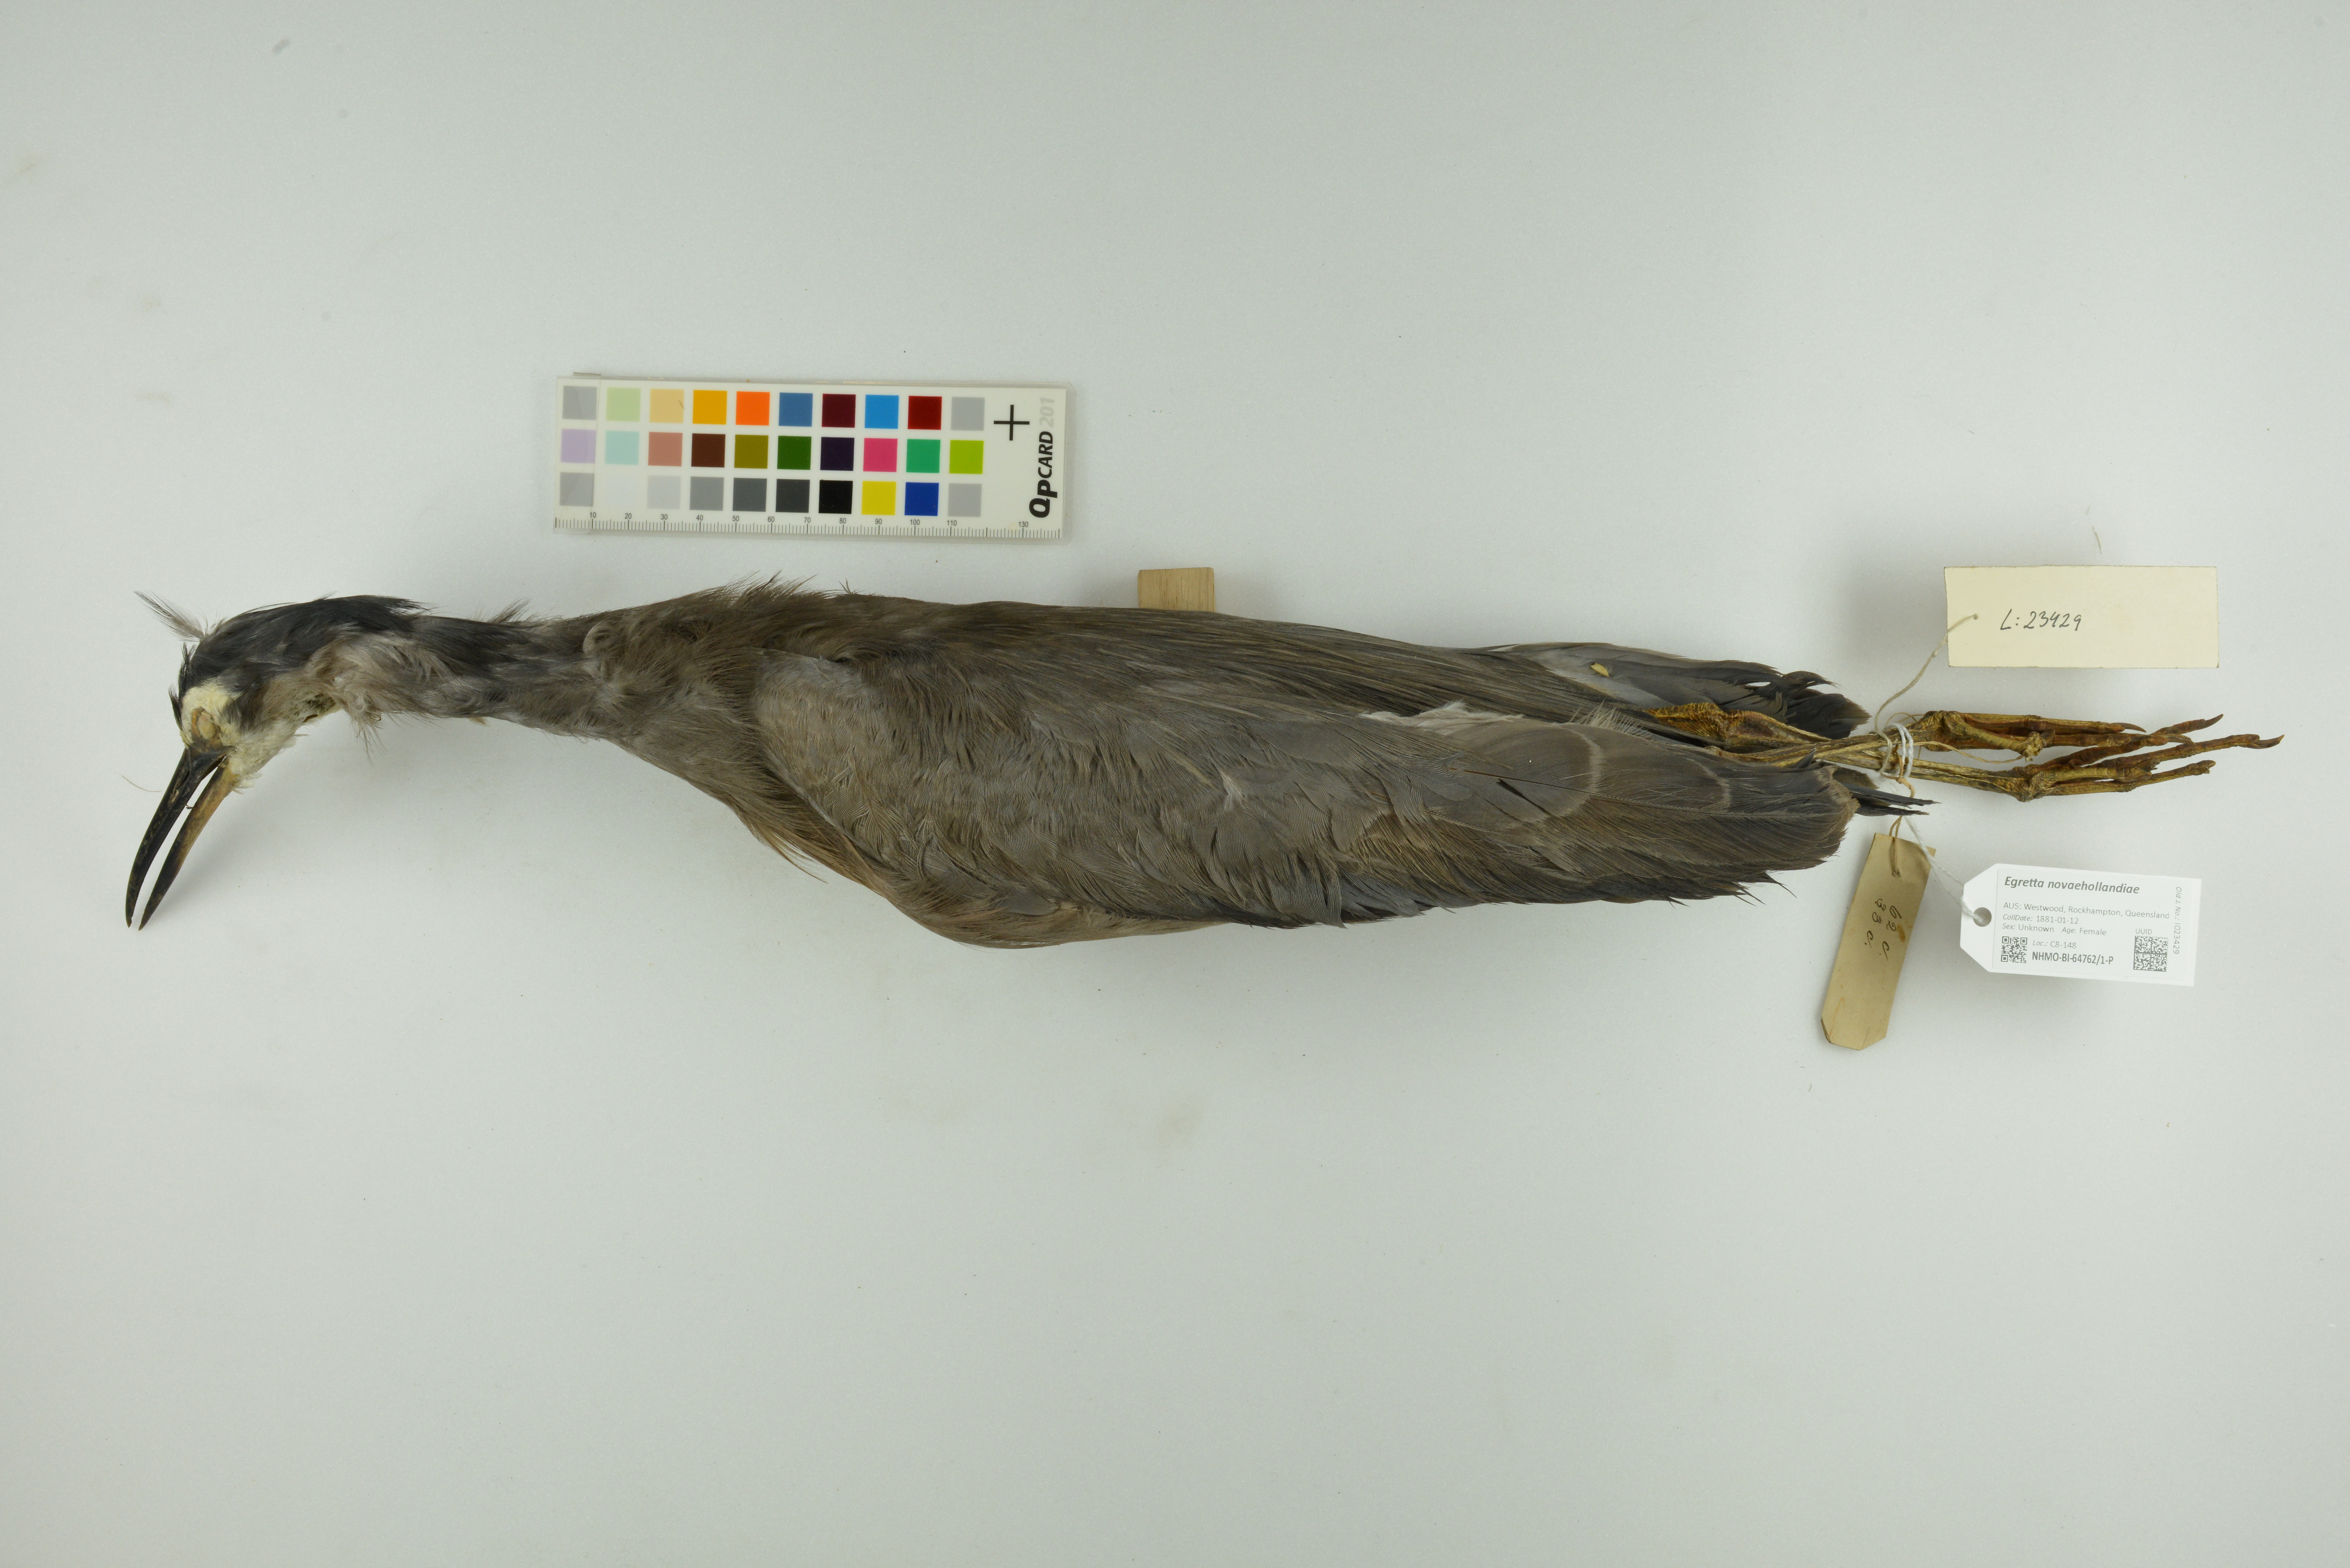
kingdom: Animalia
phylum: Chordata
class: Aves
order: Pelecaniformes
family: Ardeidae
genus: Egretta
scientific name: Egretta novaehollandiae
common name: White-faced heron
